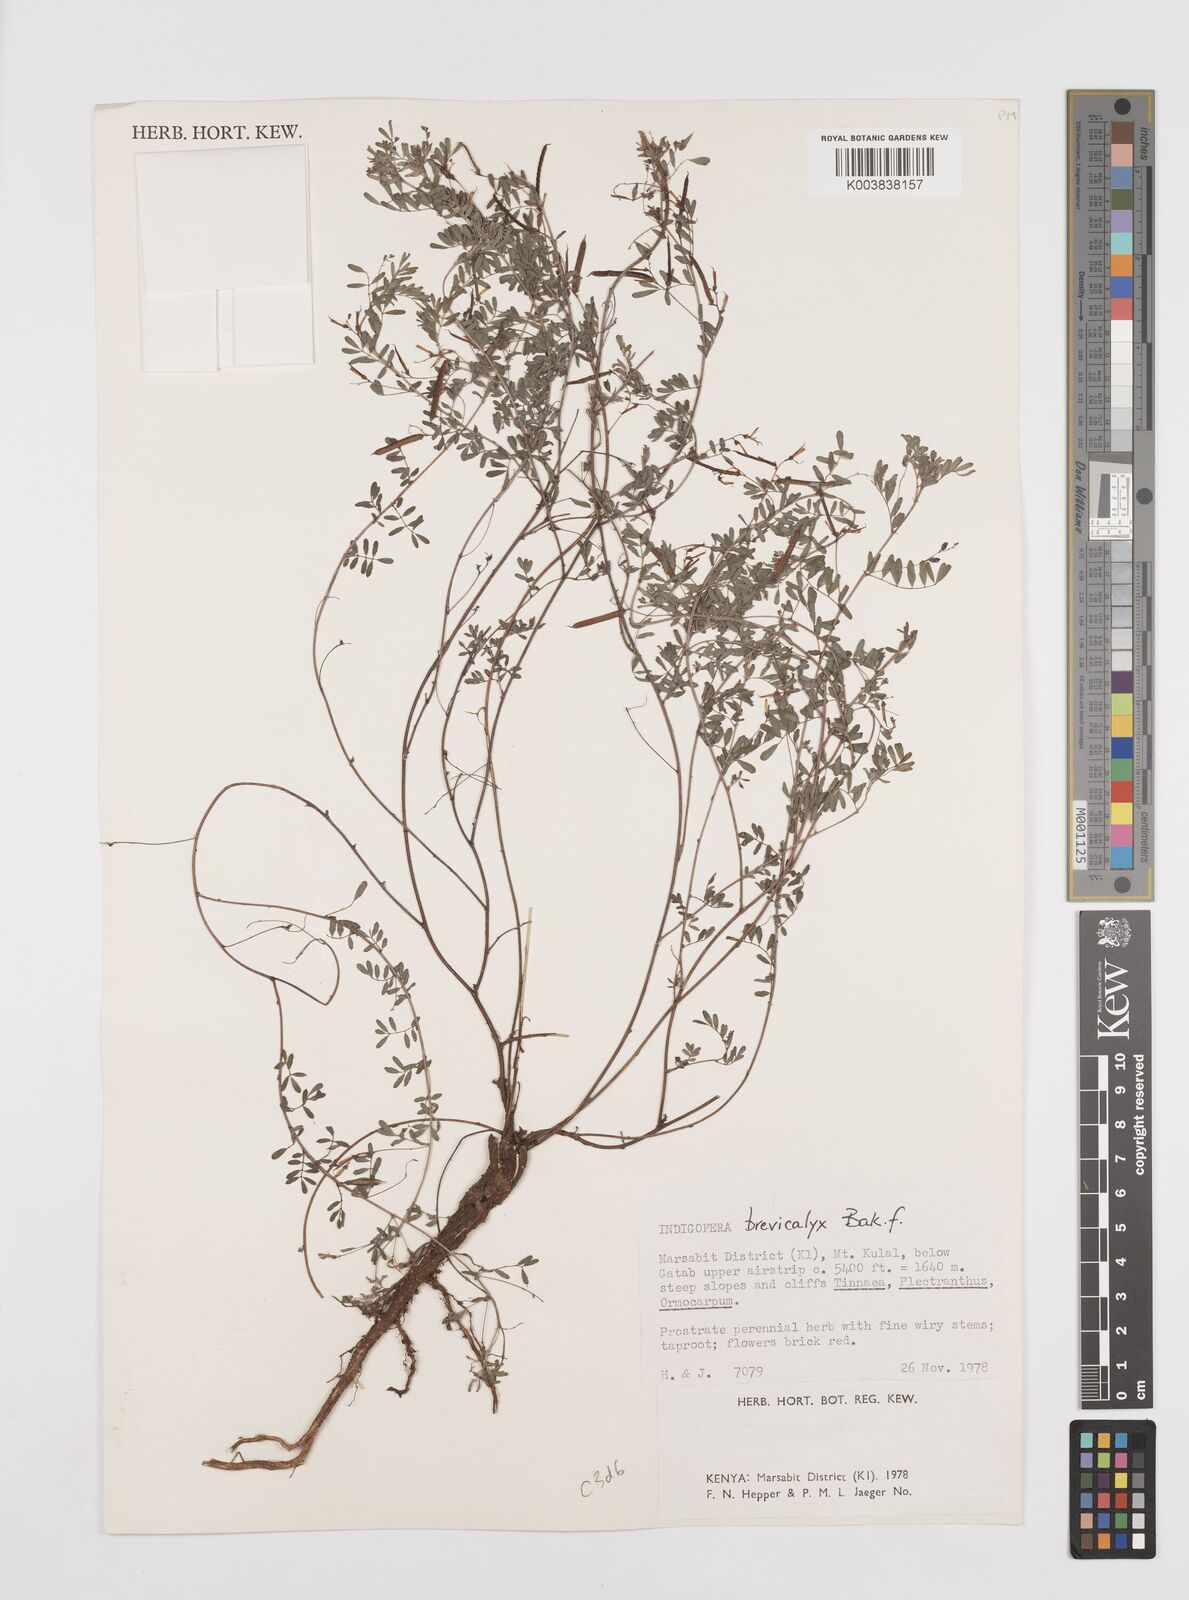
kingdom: Plantae
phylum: Tracheophyta
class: Magnoliopsida
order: Fabales
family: Fabaceae
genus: Indigofera
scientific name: Indigofera brevicalyx
